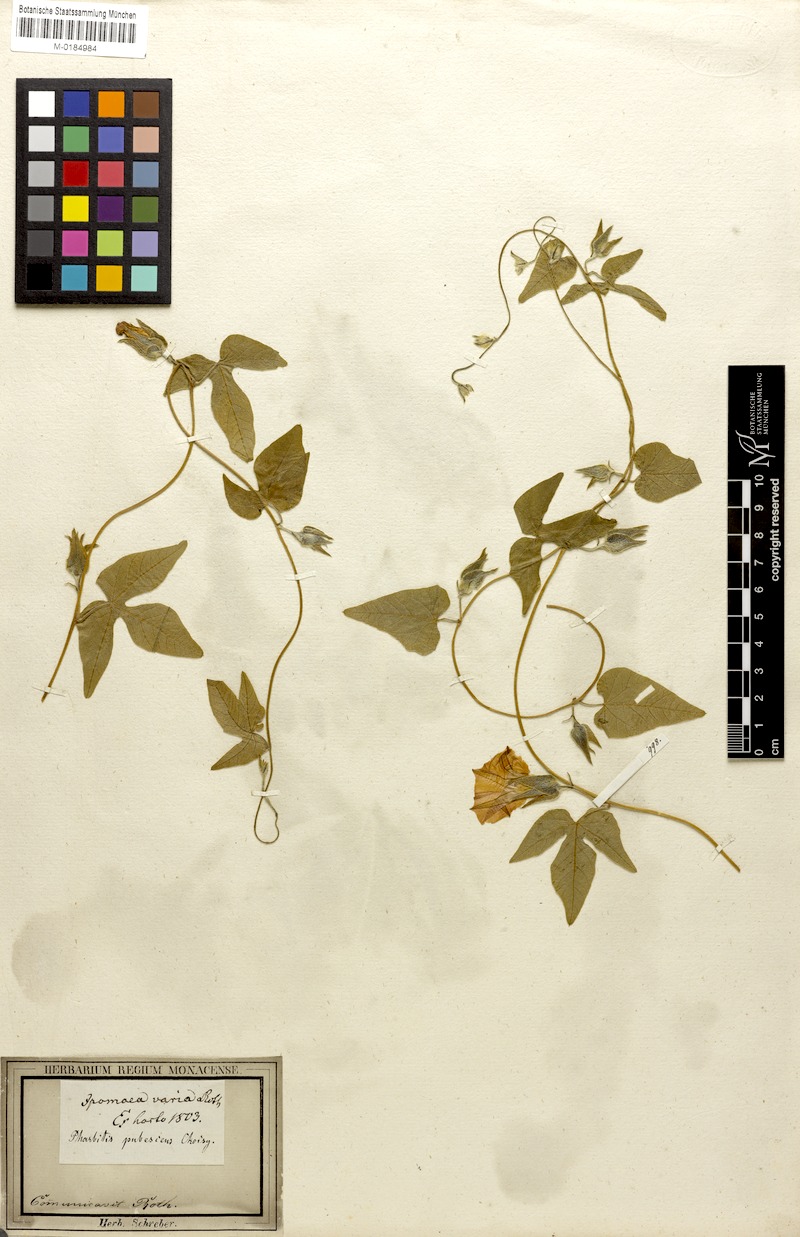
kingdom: Plantae
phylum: Tracheophyta
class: Magnoliopsida
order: Solanales
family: Convolvulaceae
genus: Ipomoea
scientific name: Ipomoea pubescens
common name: Silky morning-glory
